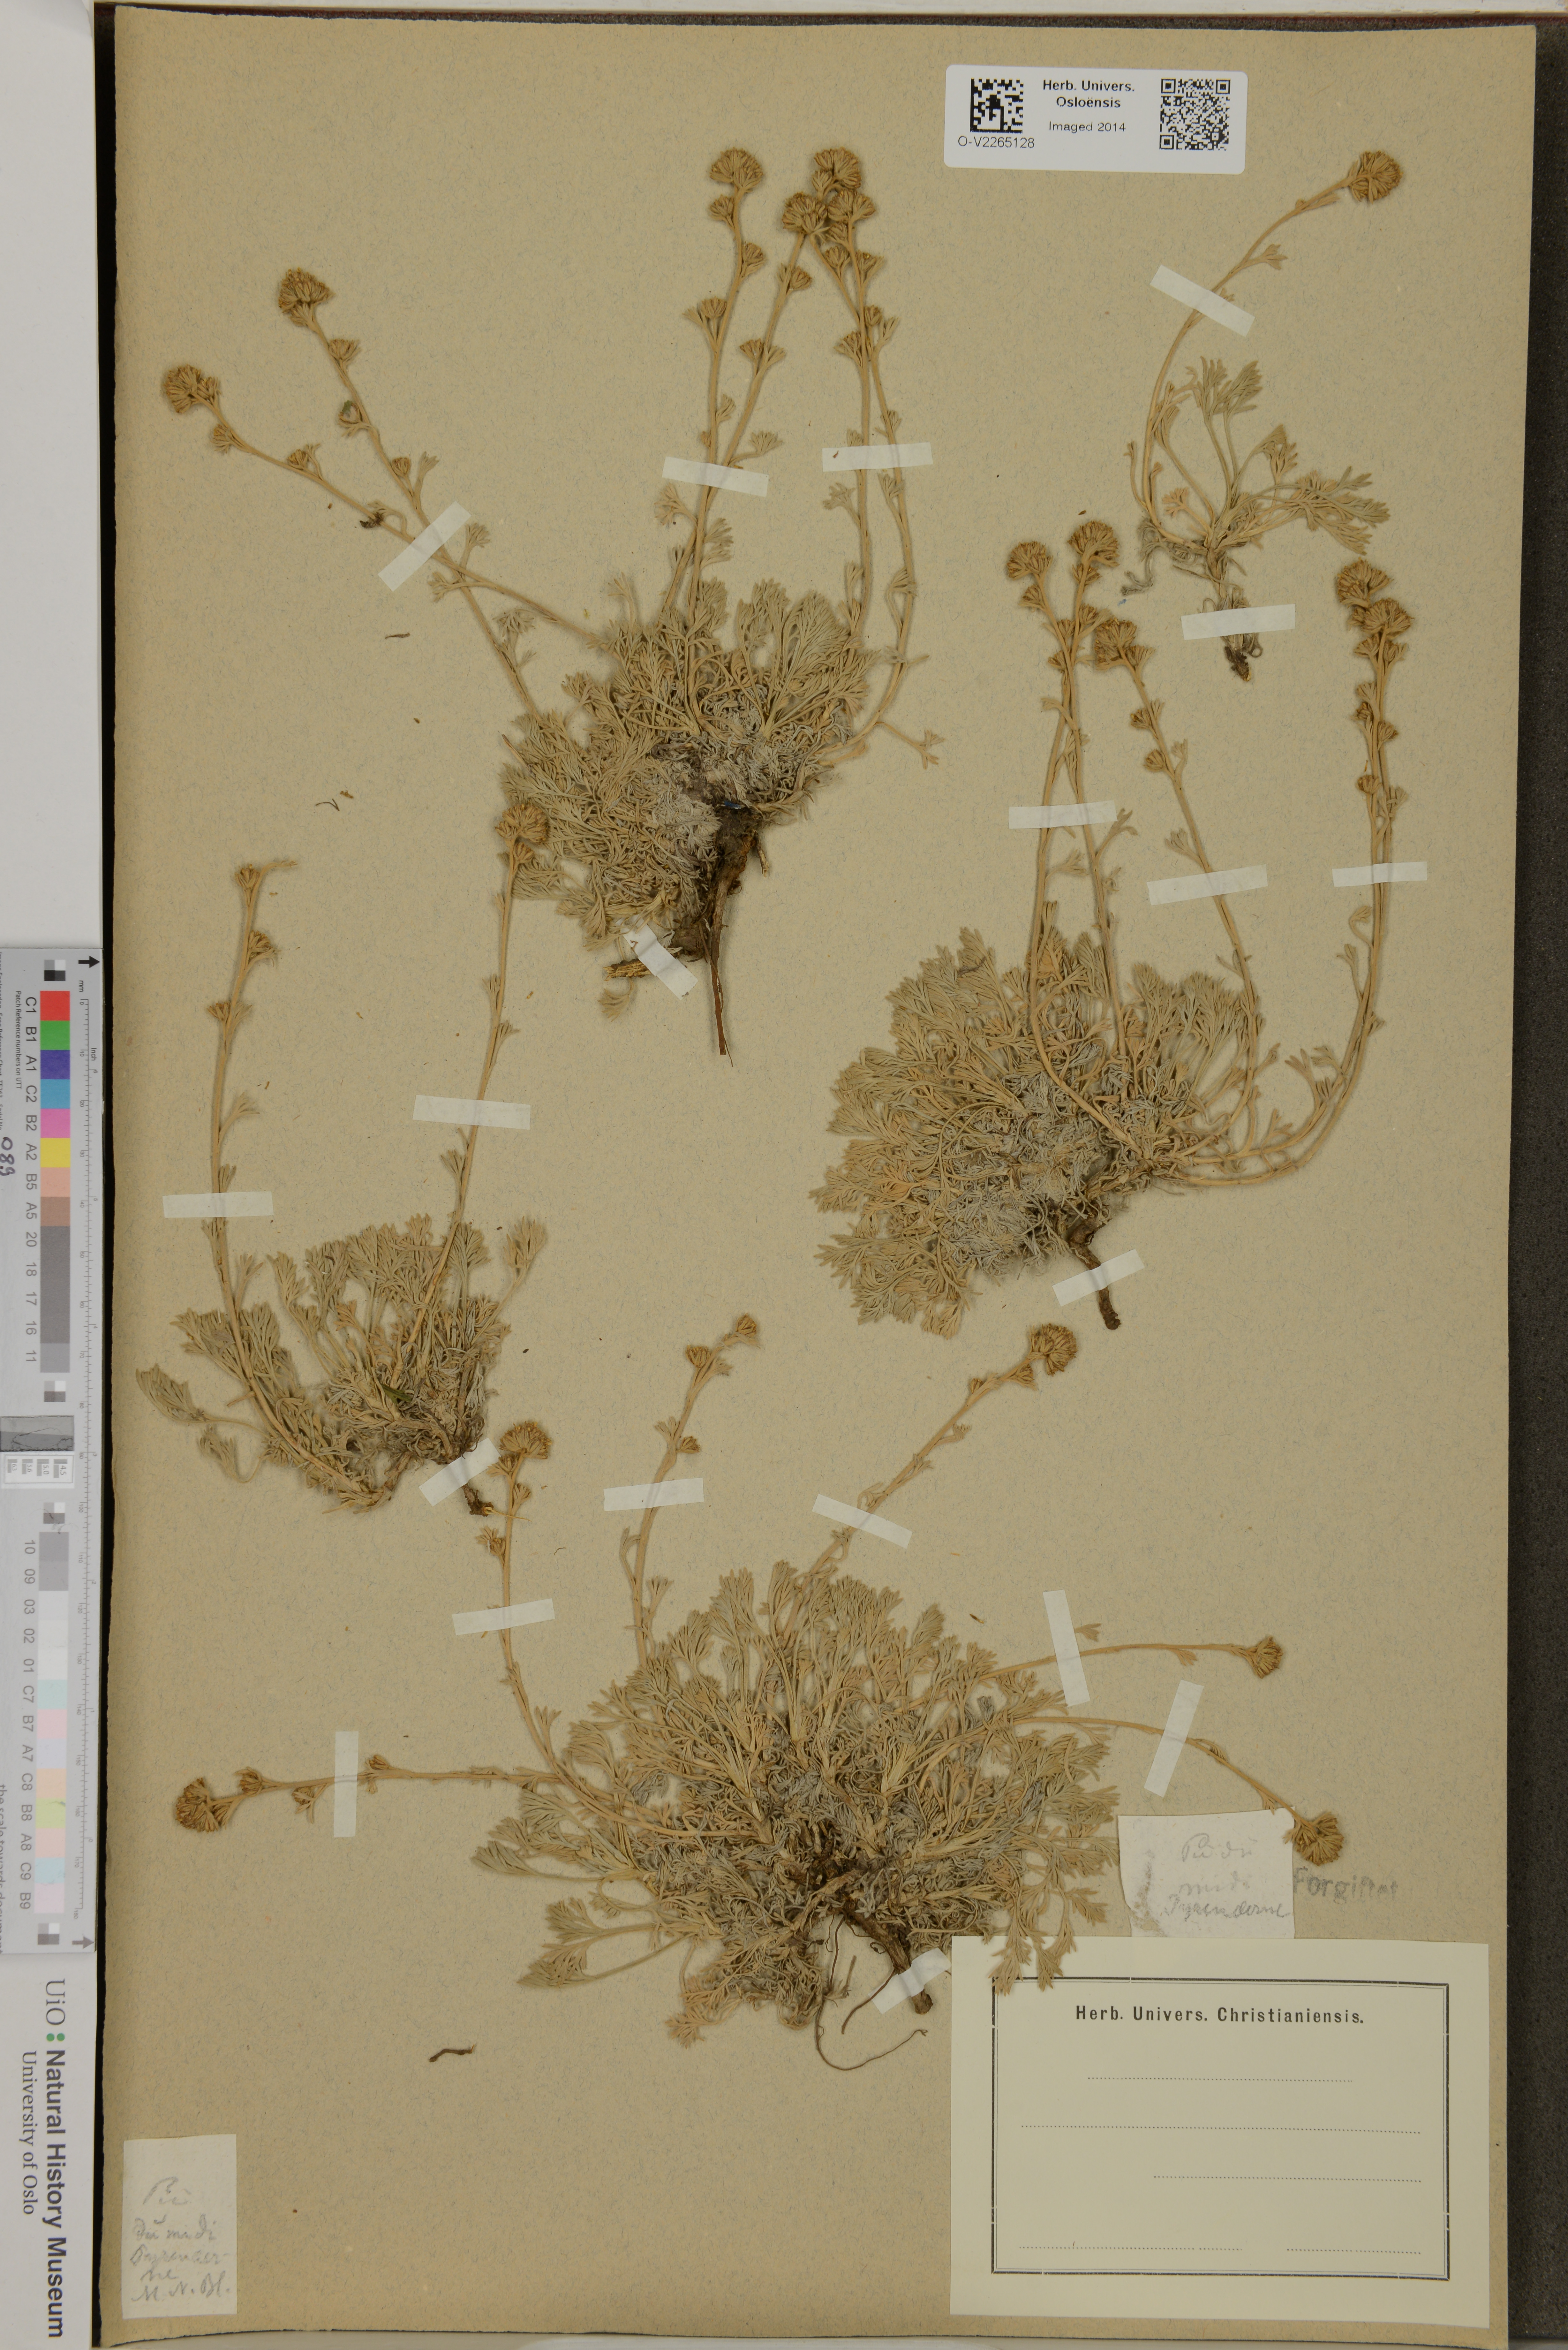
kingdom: Plantae
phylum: Tracheophyta
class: Magnoliopsida
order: Asterales
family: Asteraceae
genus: Artemisia
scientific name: Artemisia
